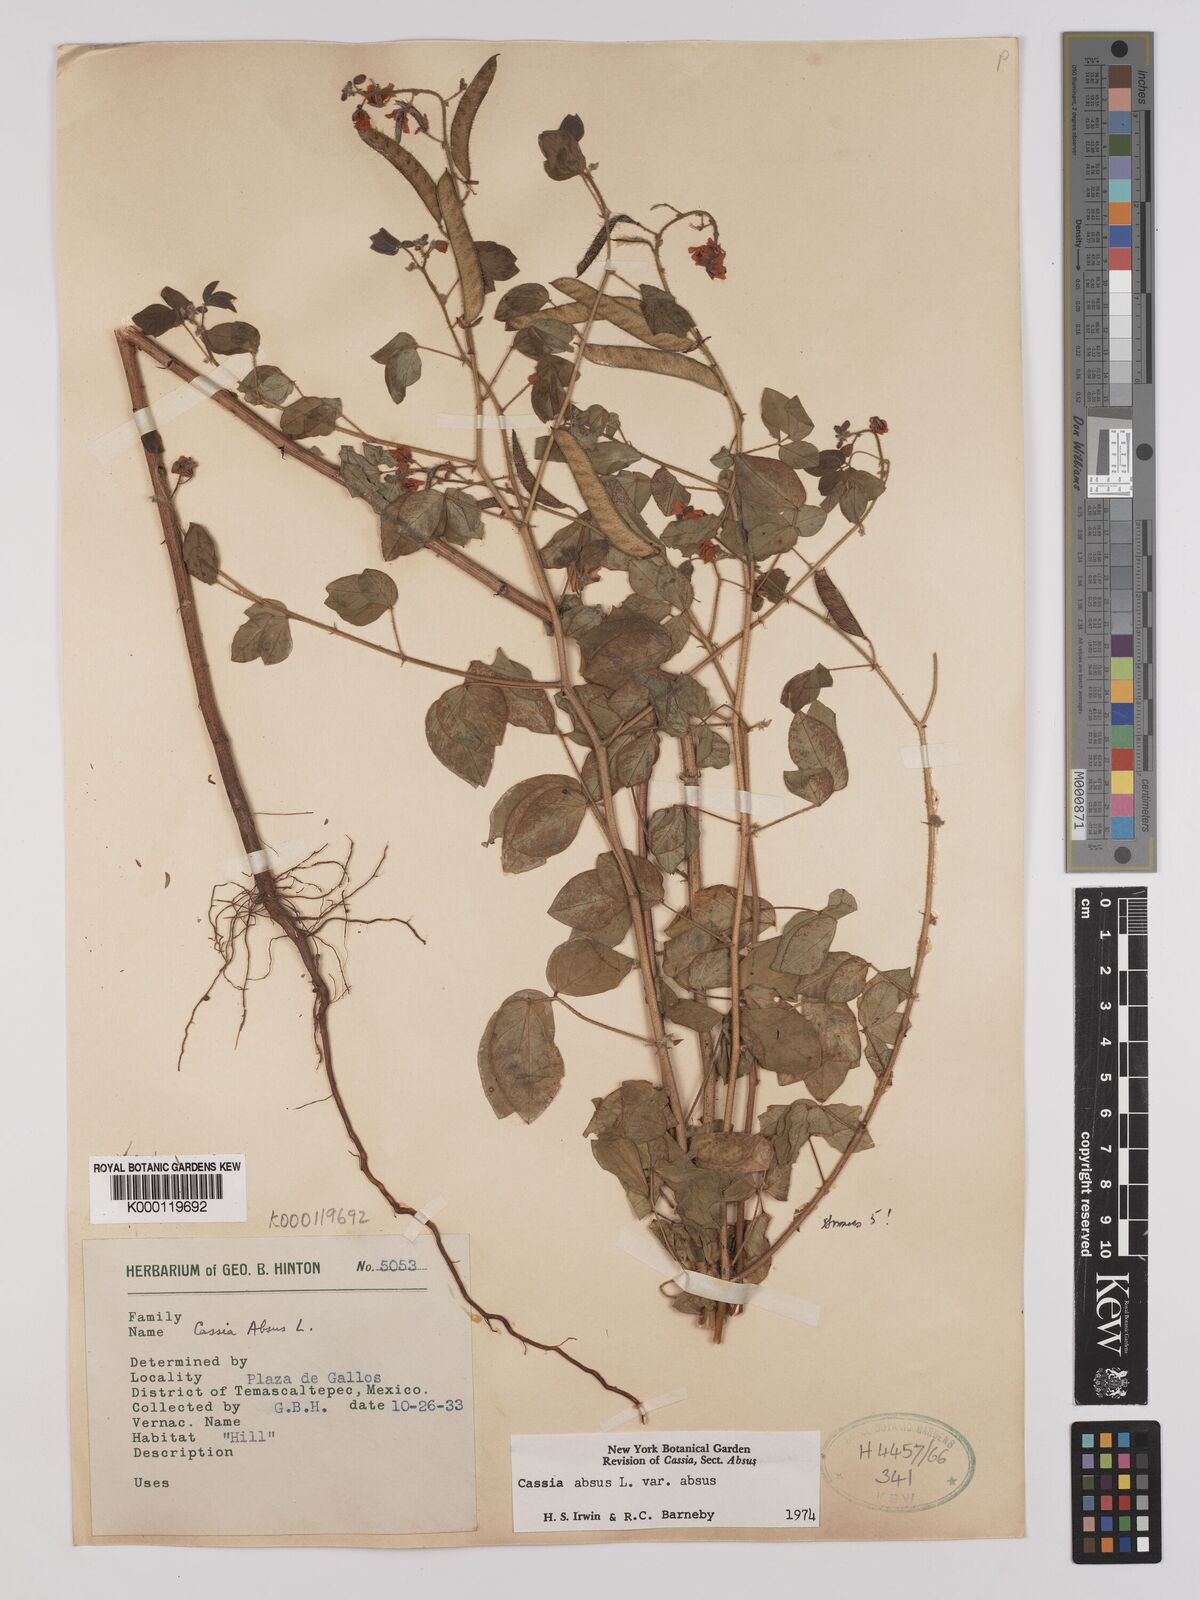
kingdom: Plantae
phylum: Tracheophyta
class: Magnoliopsida
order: Fabales
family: Fabaceae
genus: Chamaecrista
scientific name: Chamaecrista absus
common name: Tropical sensitive pea
